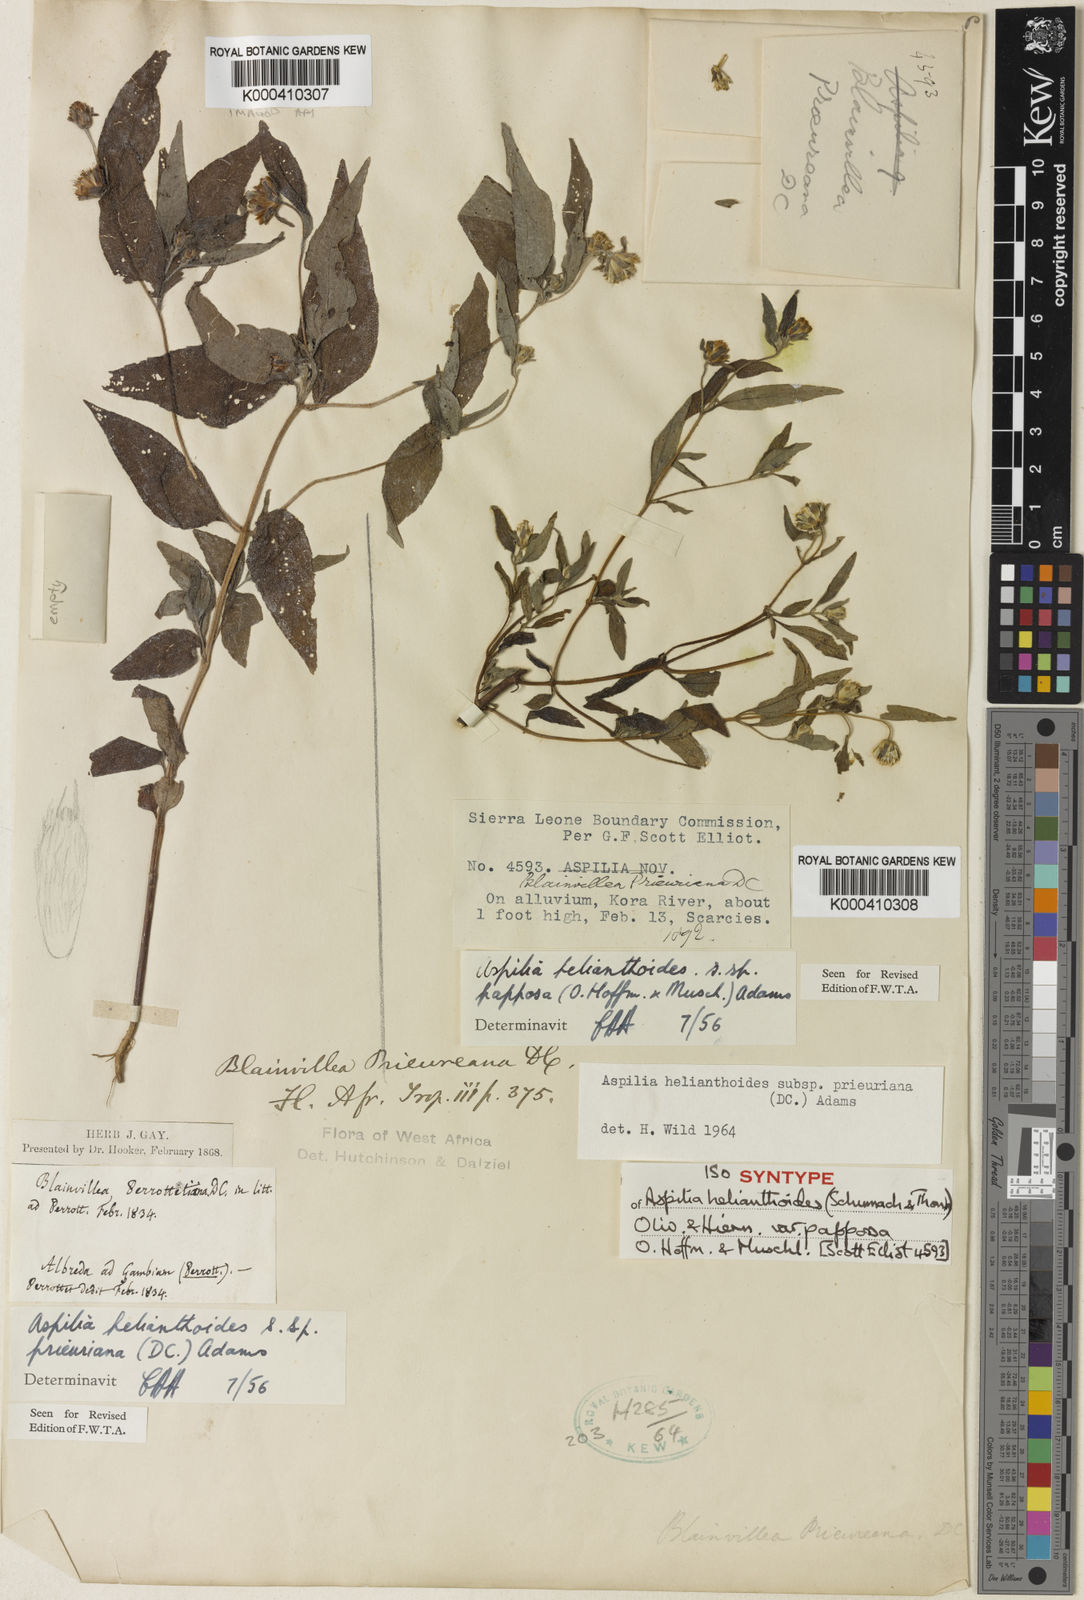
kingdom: Plantae
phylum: Tracheophyta
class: Magnoliopsida
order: Asterales
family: Asteraceae
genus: Aspilia
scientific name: Aspilia ciliata
